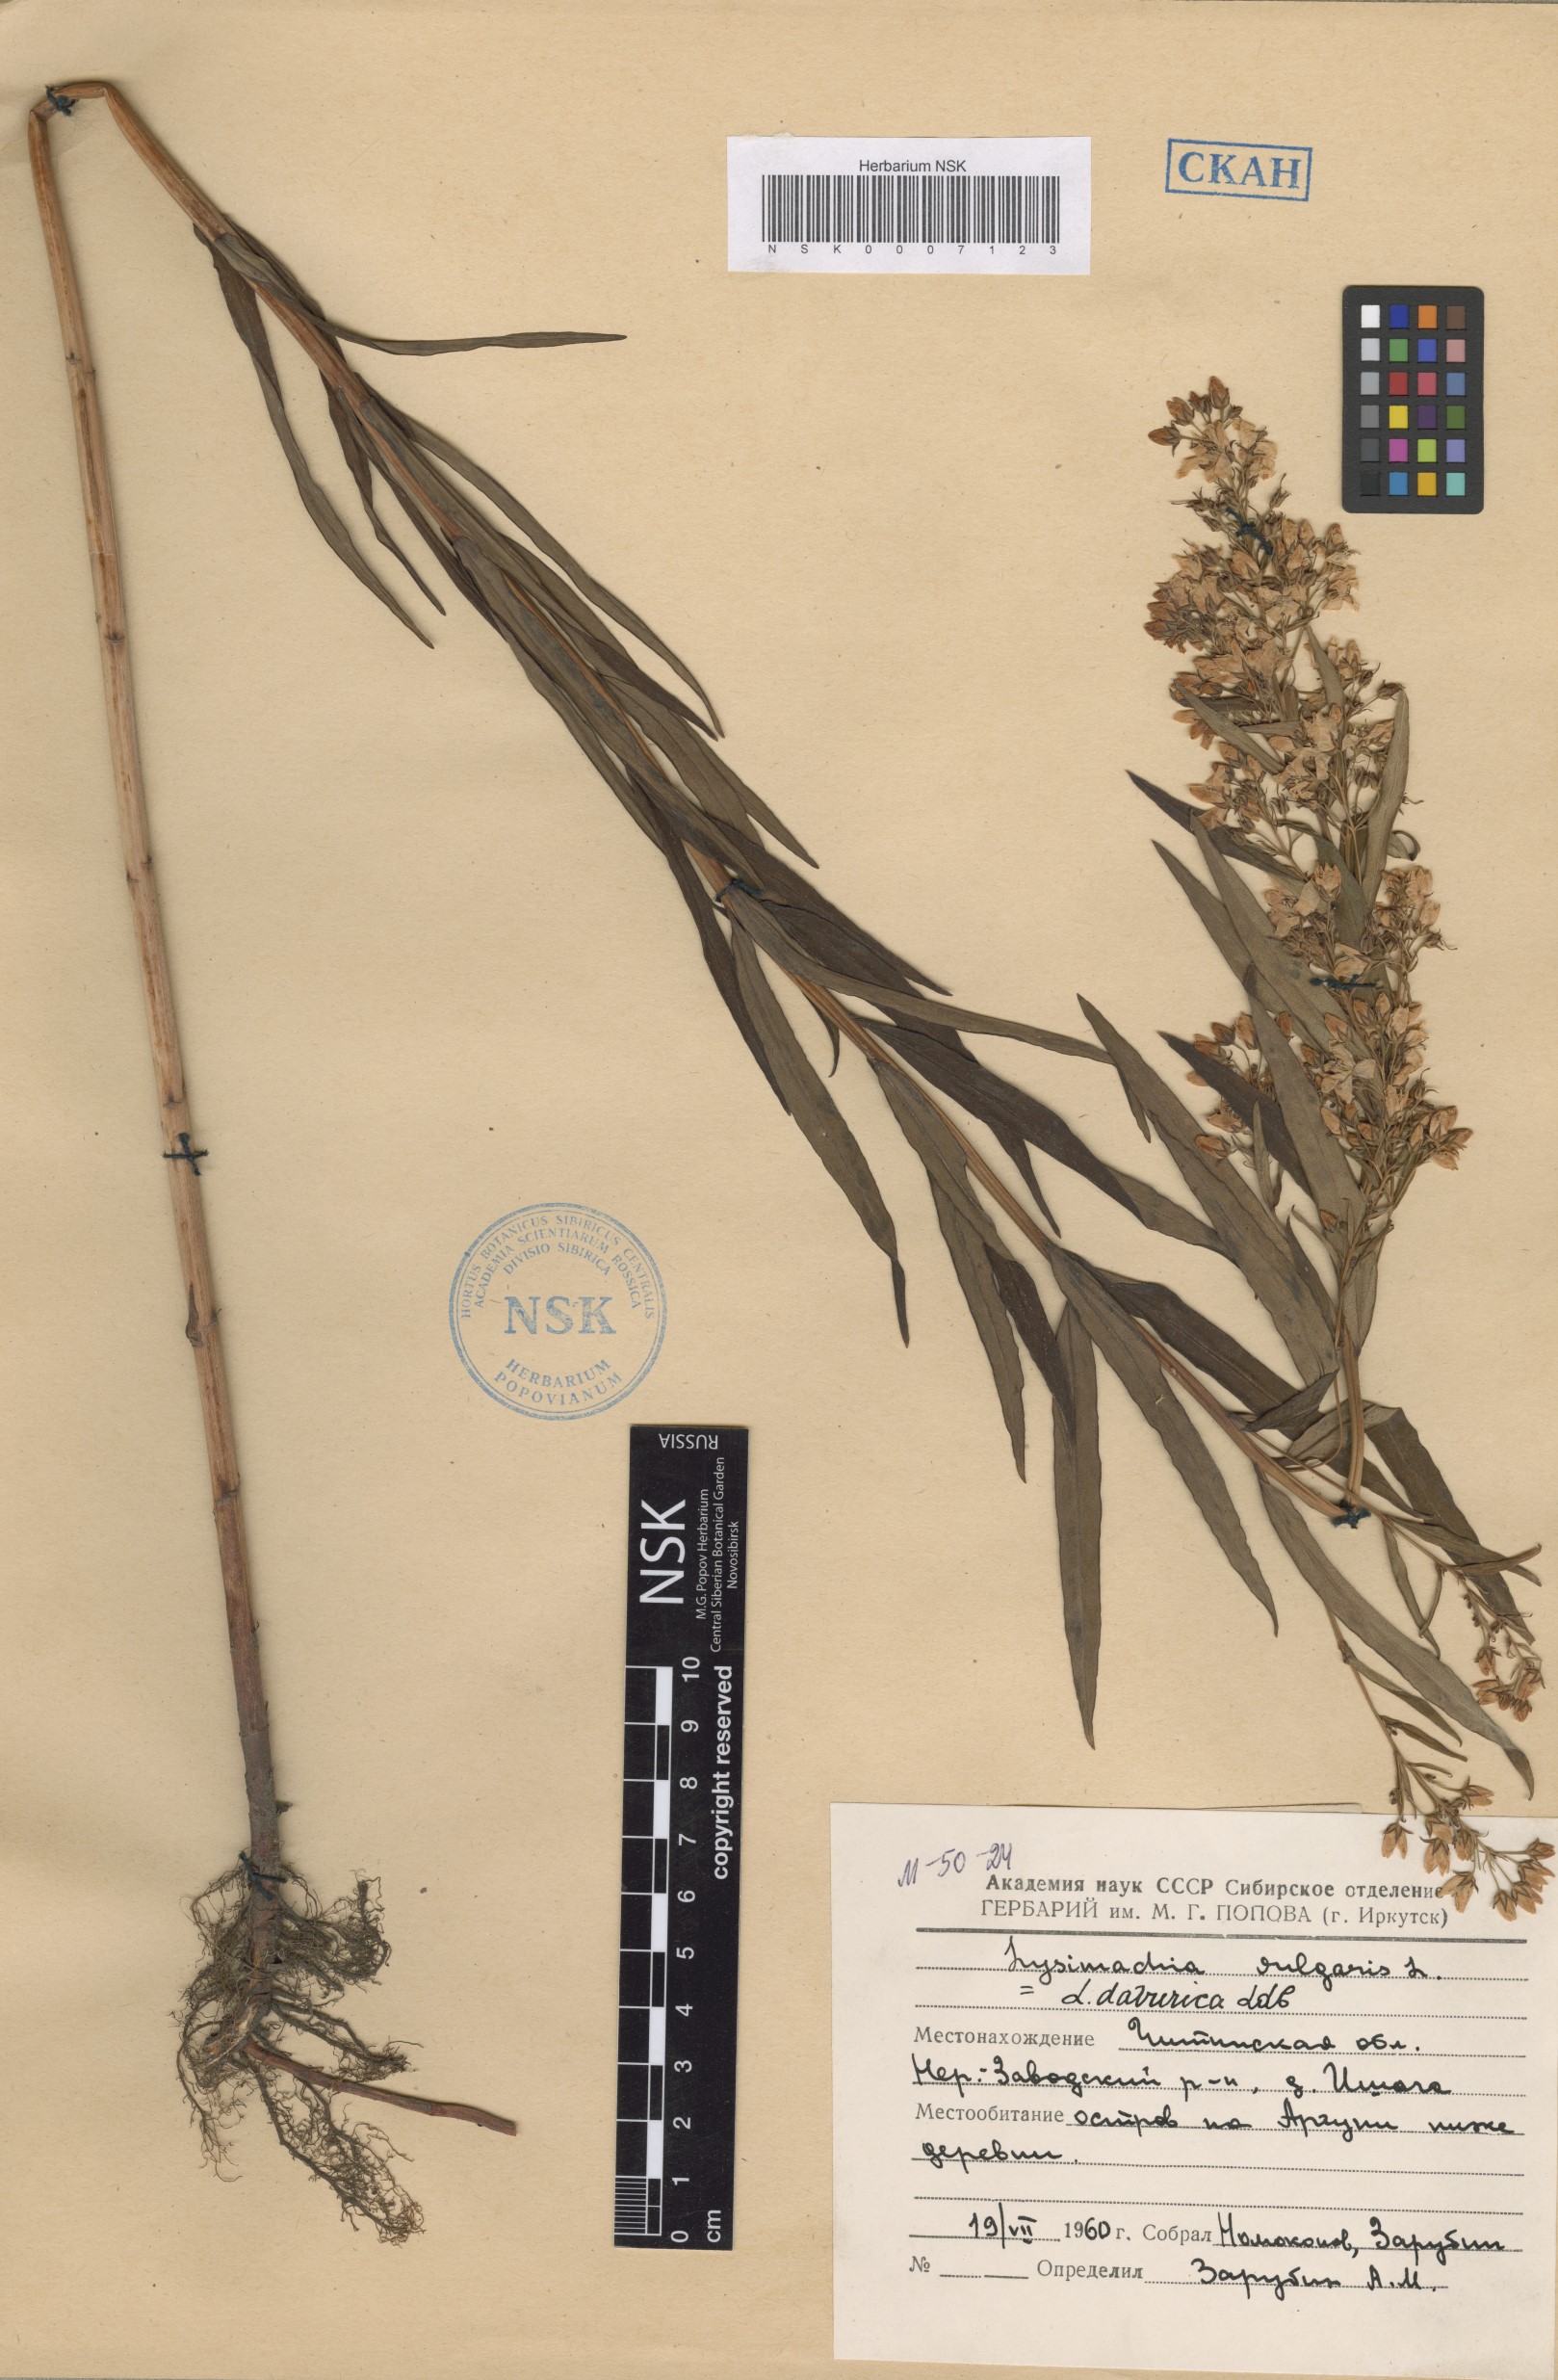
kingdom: Plantae
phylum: Tracheophyta
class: Magnoliopsida
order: Ericales
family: Primulaceae
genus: Lysimachia
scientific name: Lysimachia davurica
